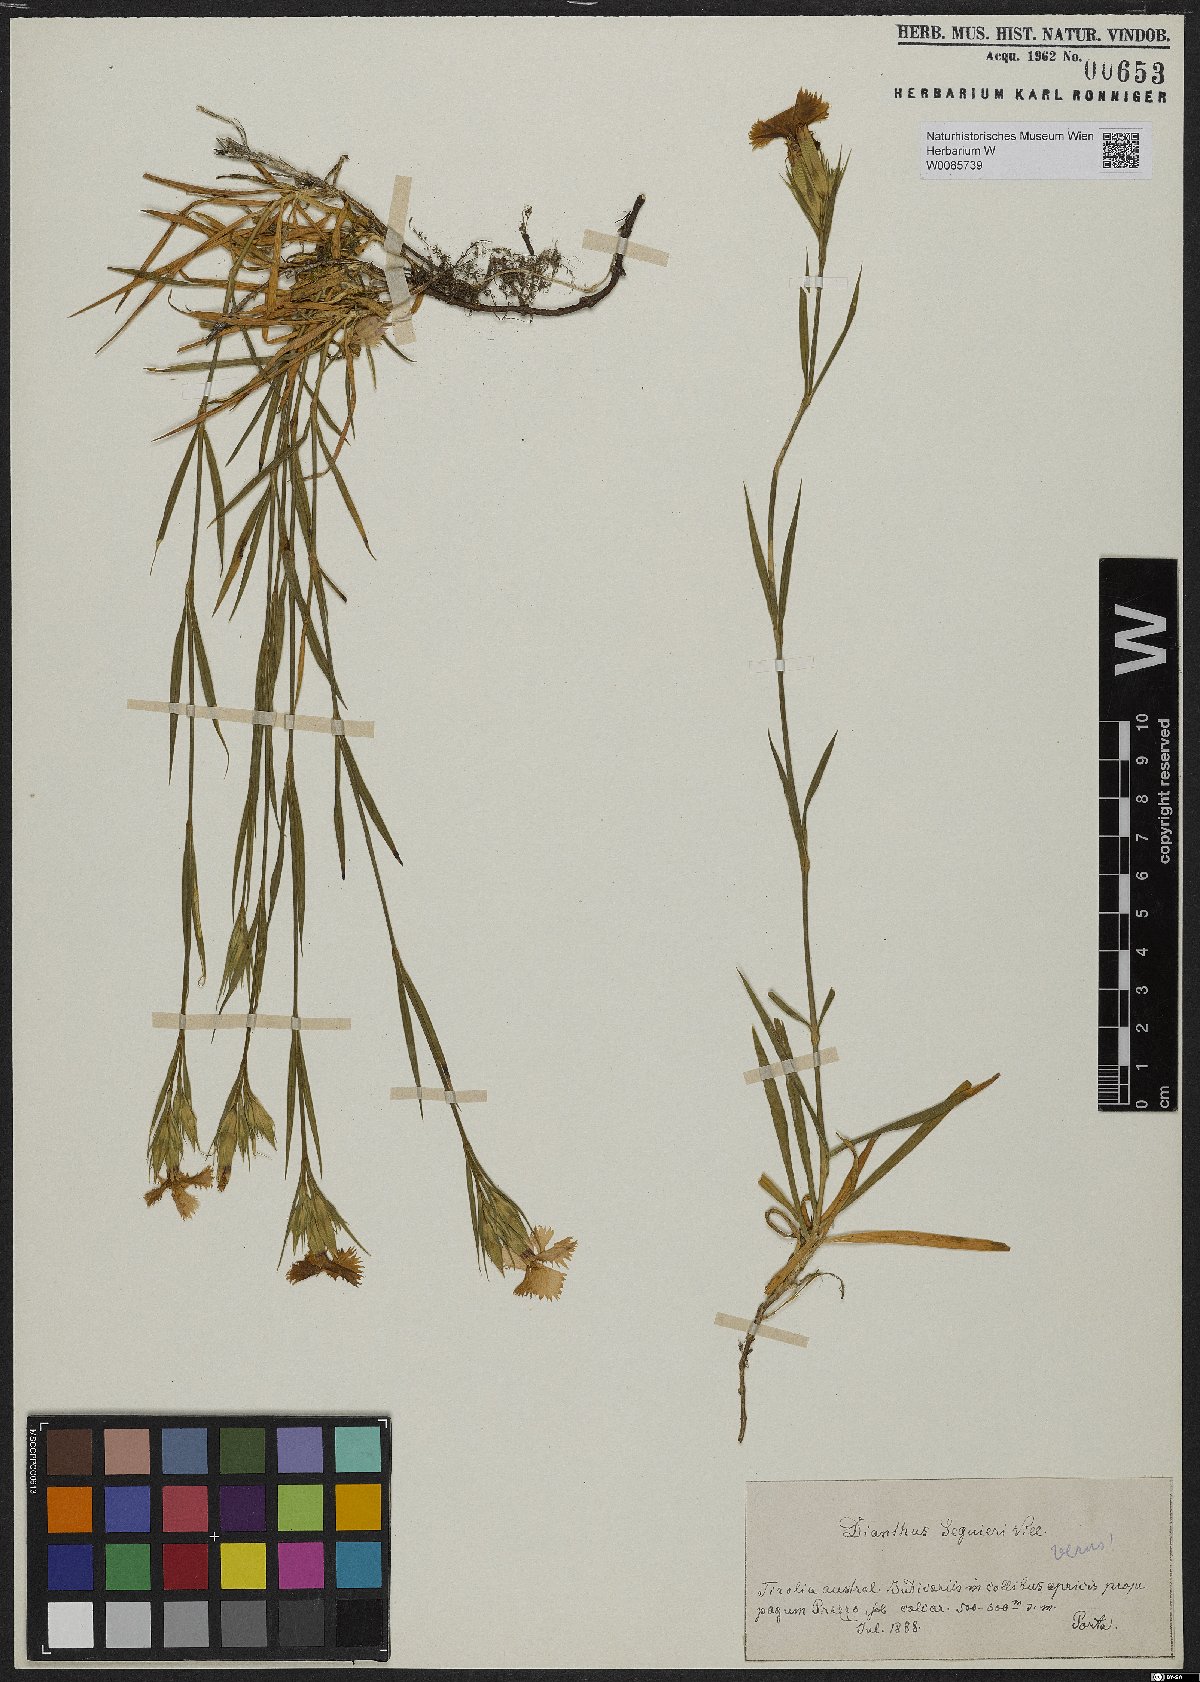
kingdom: Plantae
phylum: Tracheophyta
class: Magnoliopsida
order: Caryophyllales
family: Caryophyllaceae
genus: Dianthus
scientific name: Dianthus seguieri
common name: Ragged pink
